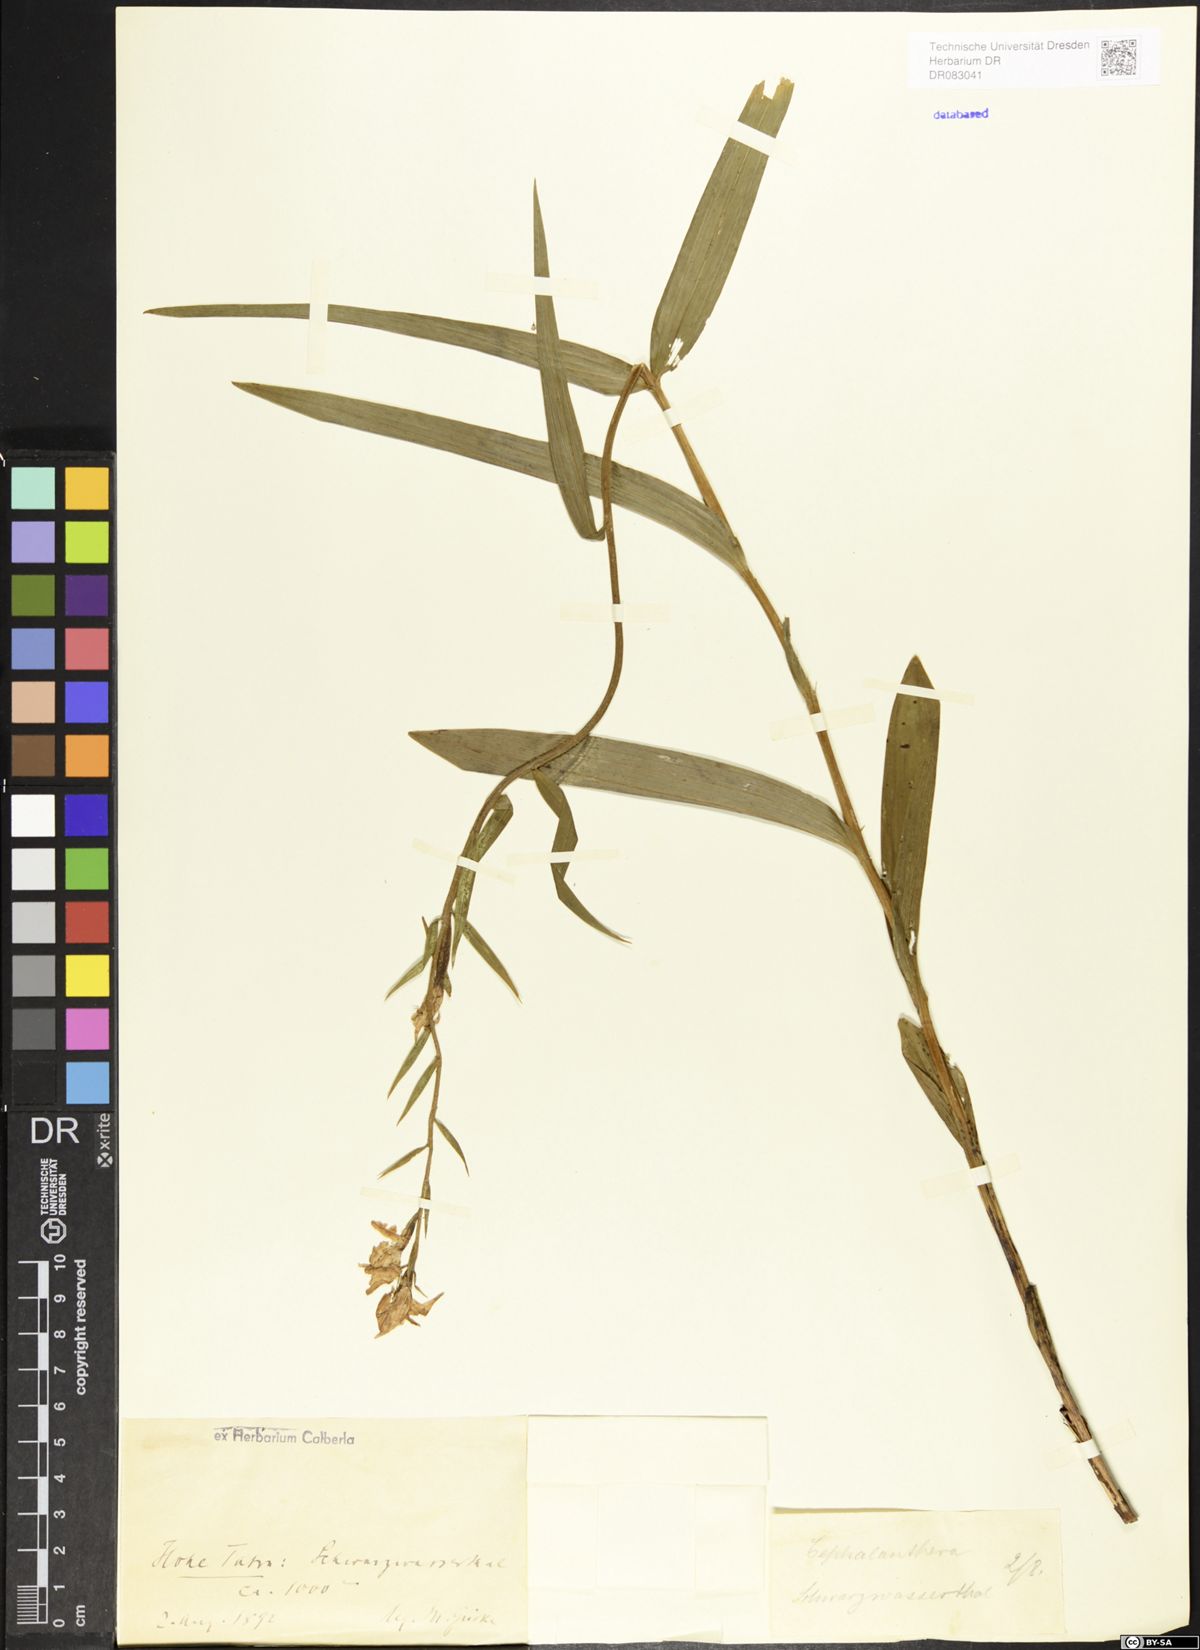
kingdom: Plantae
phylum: Tracheophyta
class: Liliopsida
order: Asparagales
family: Orchidaceae
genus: Cephalanthera
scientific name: Cephalanthera
